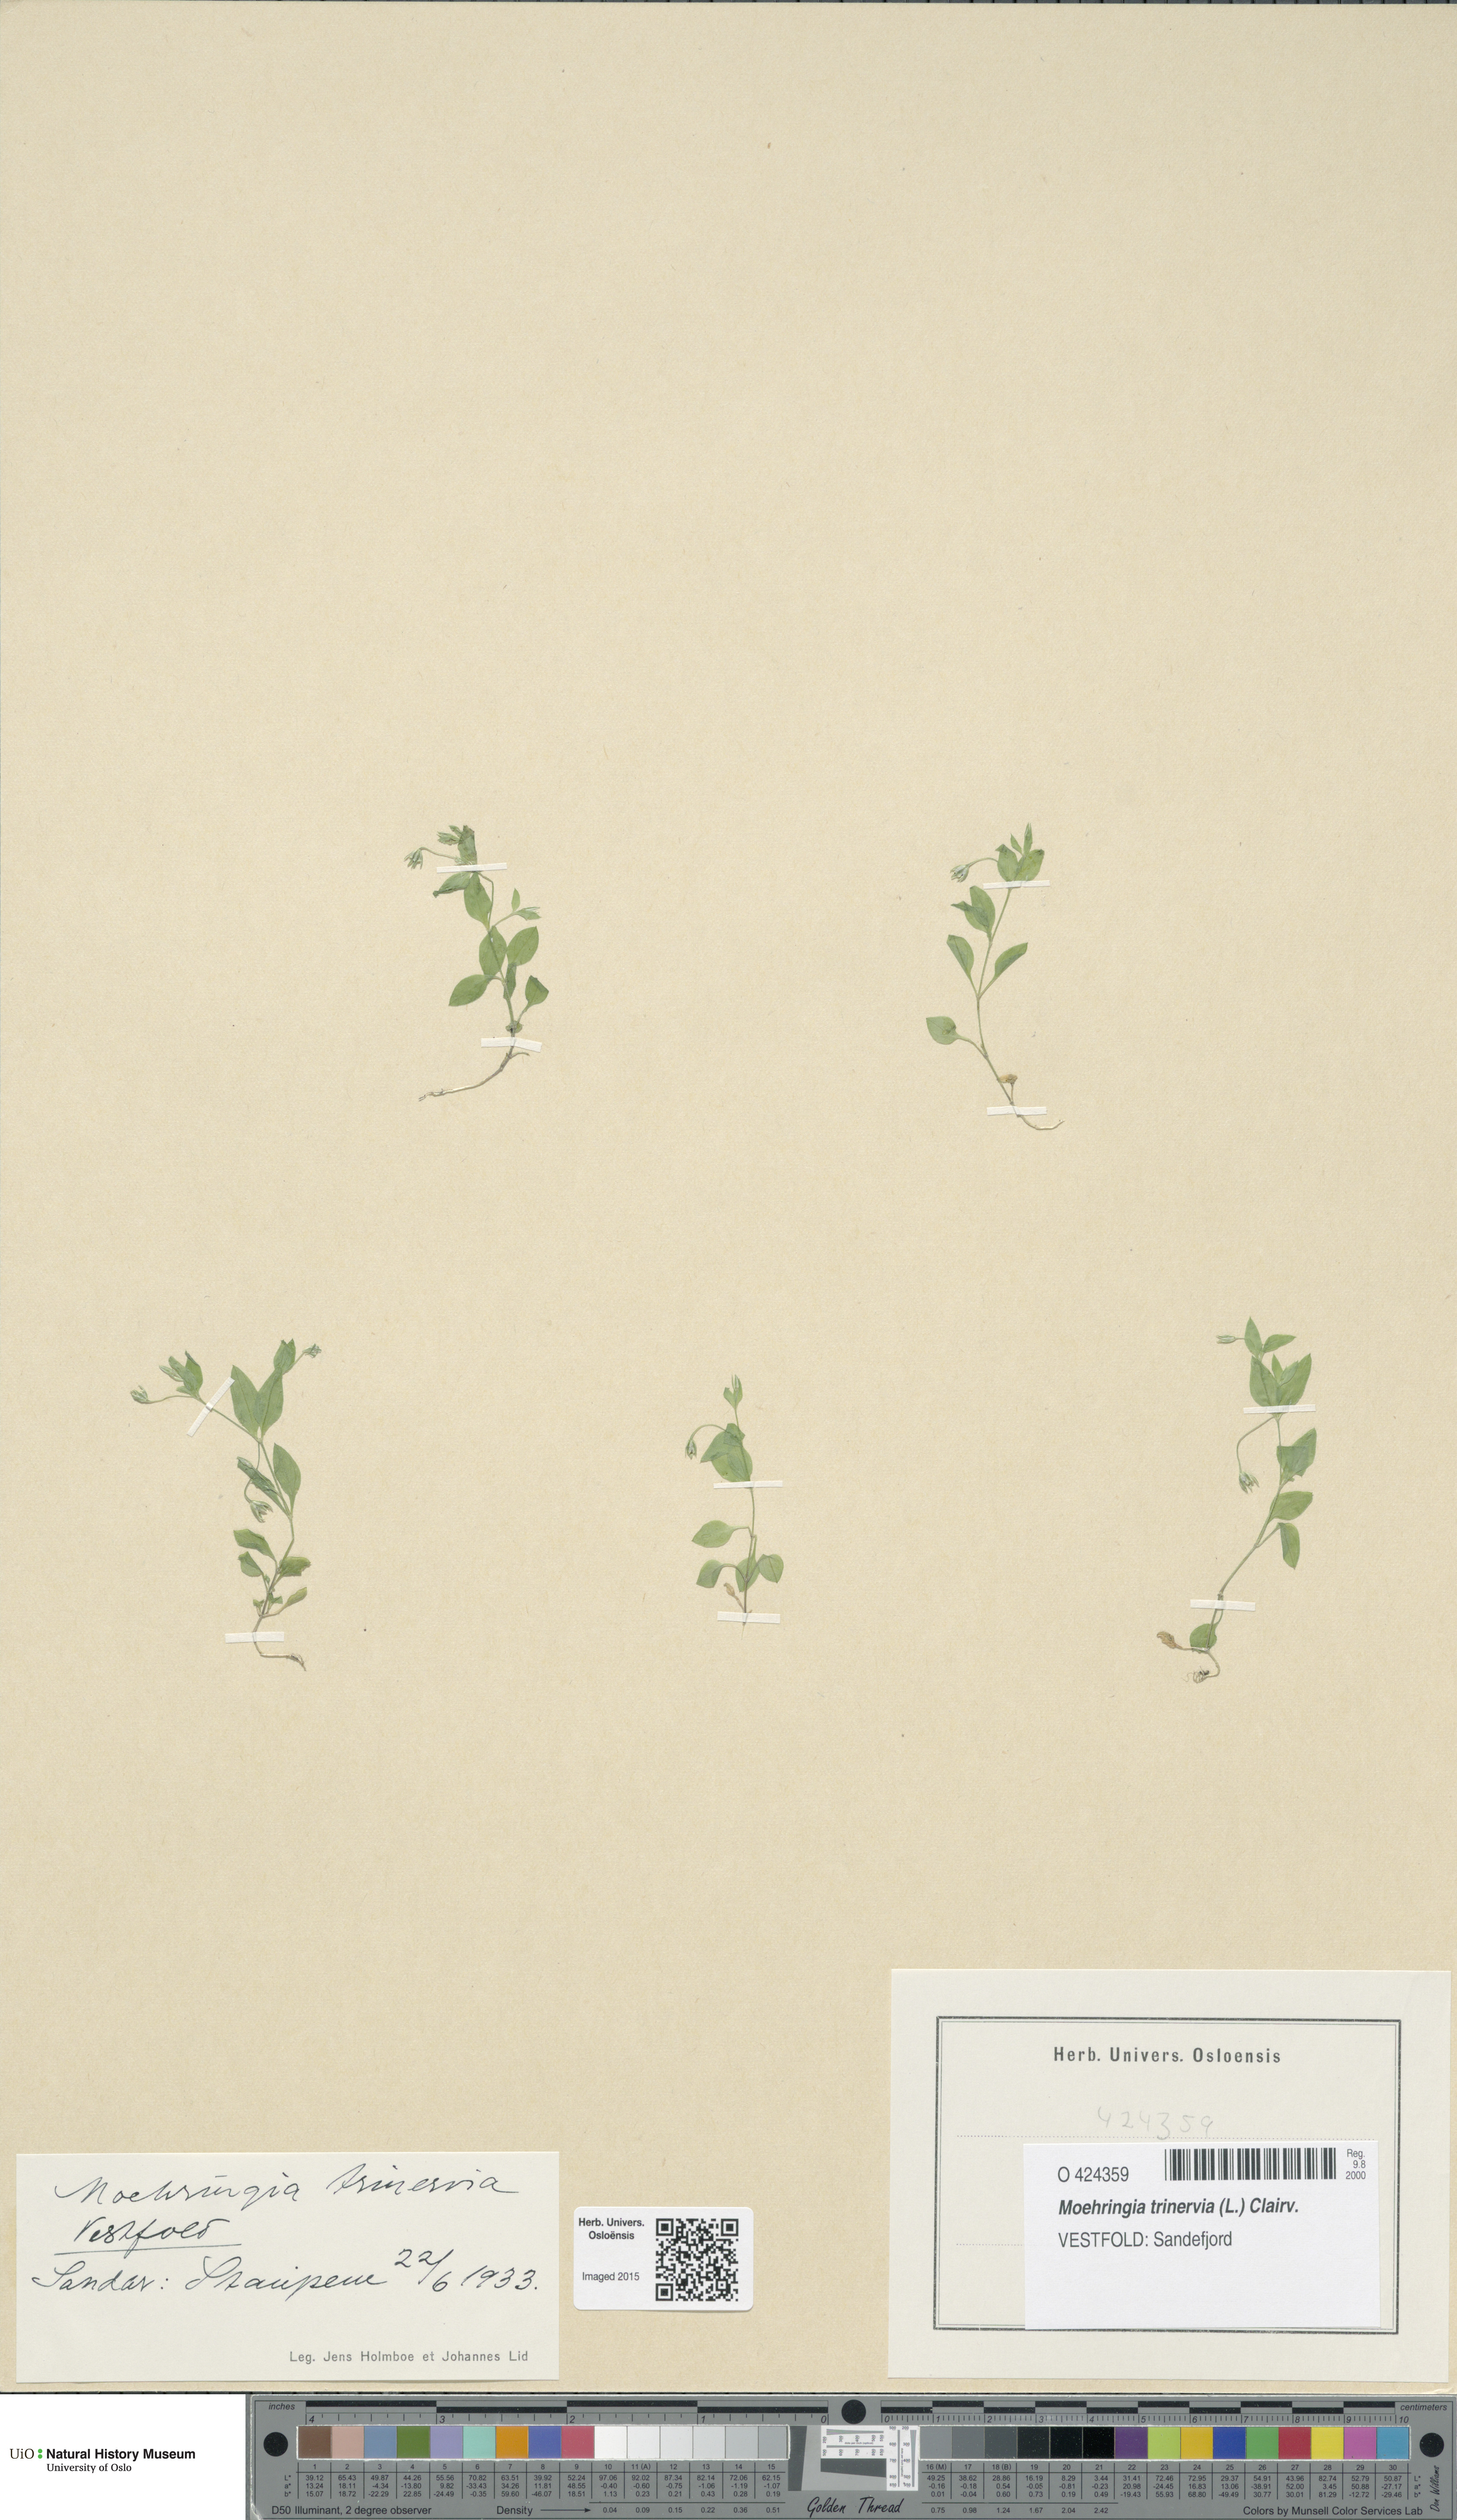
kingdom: Plantae
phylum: Tracheophyta
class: Magnoliopsida
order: Caryophyllales
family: Caryophyllaceae
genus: Moehringia
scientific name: Moehringia trinervia
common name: Three-nerved sandwort
